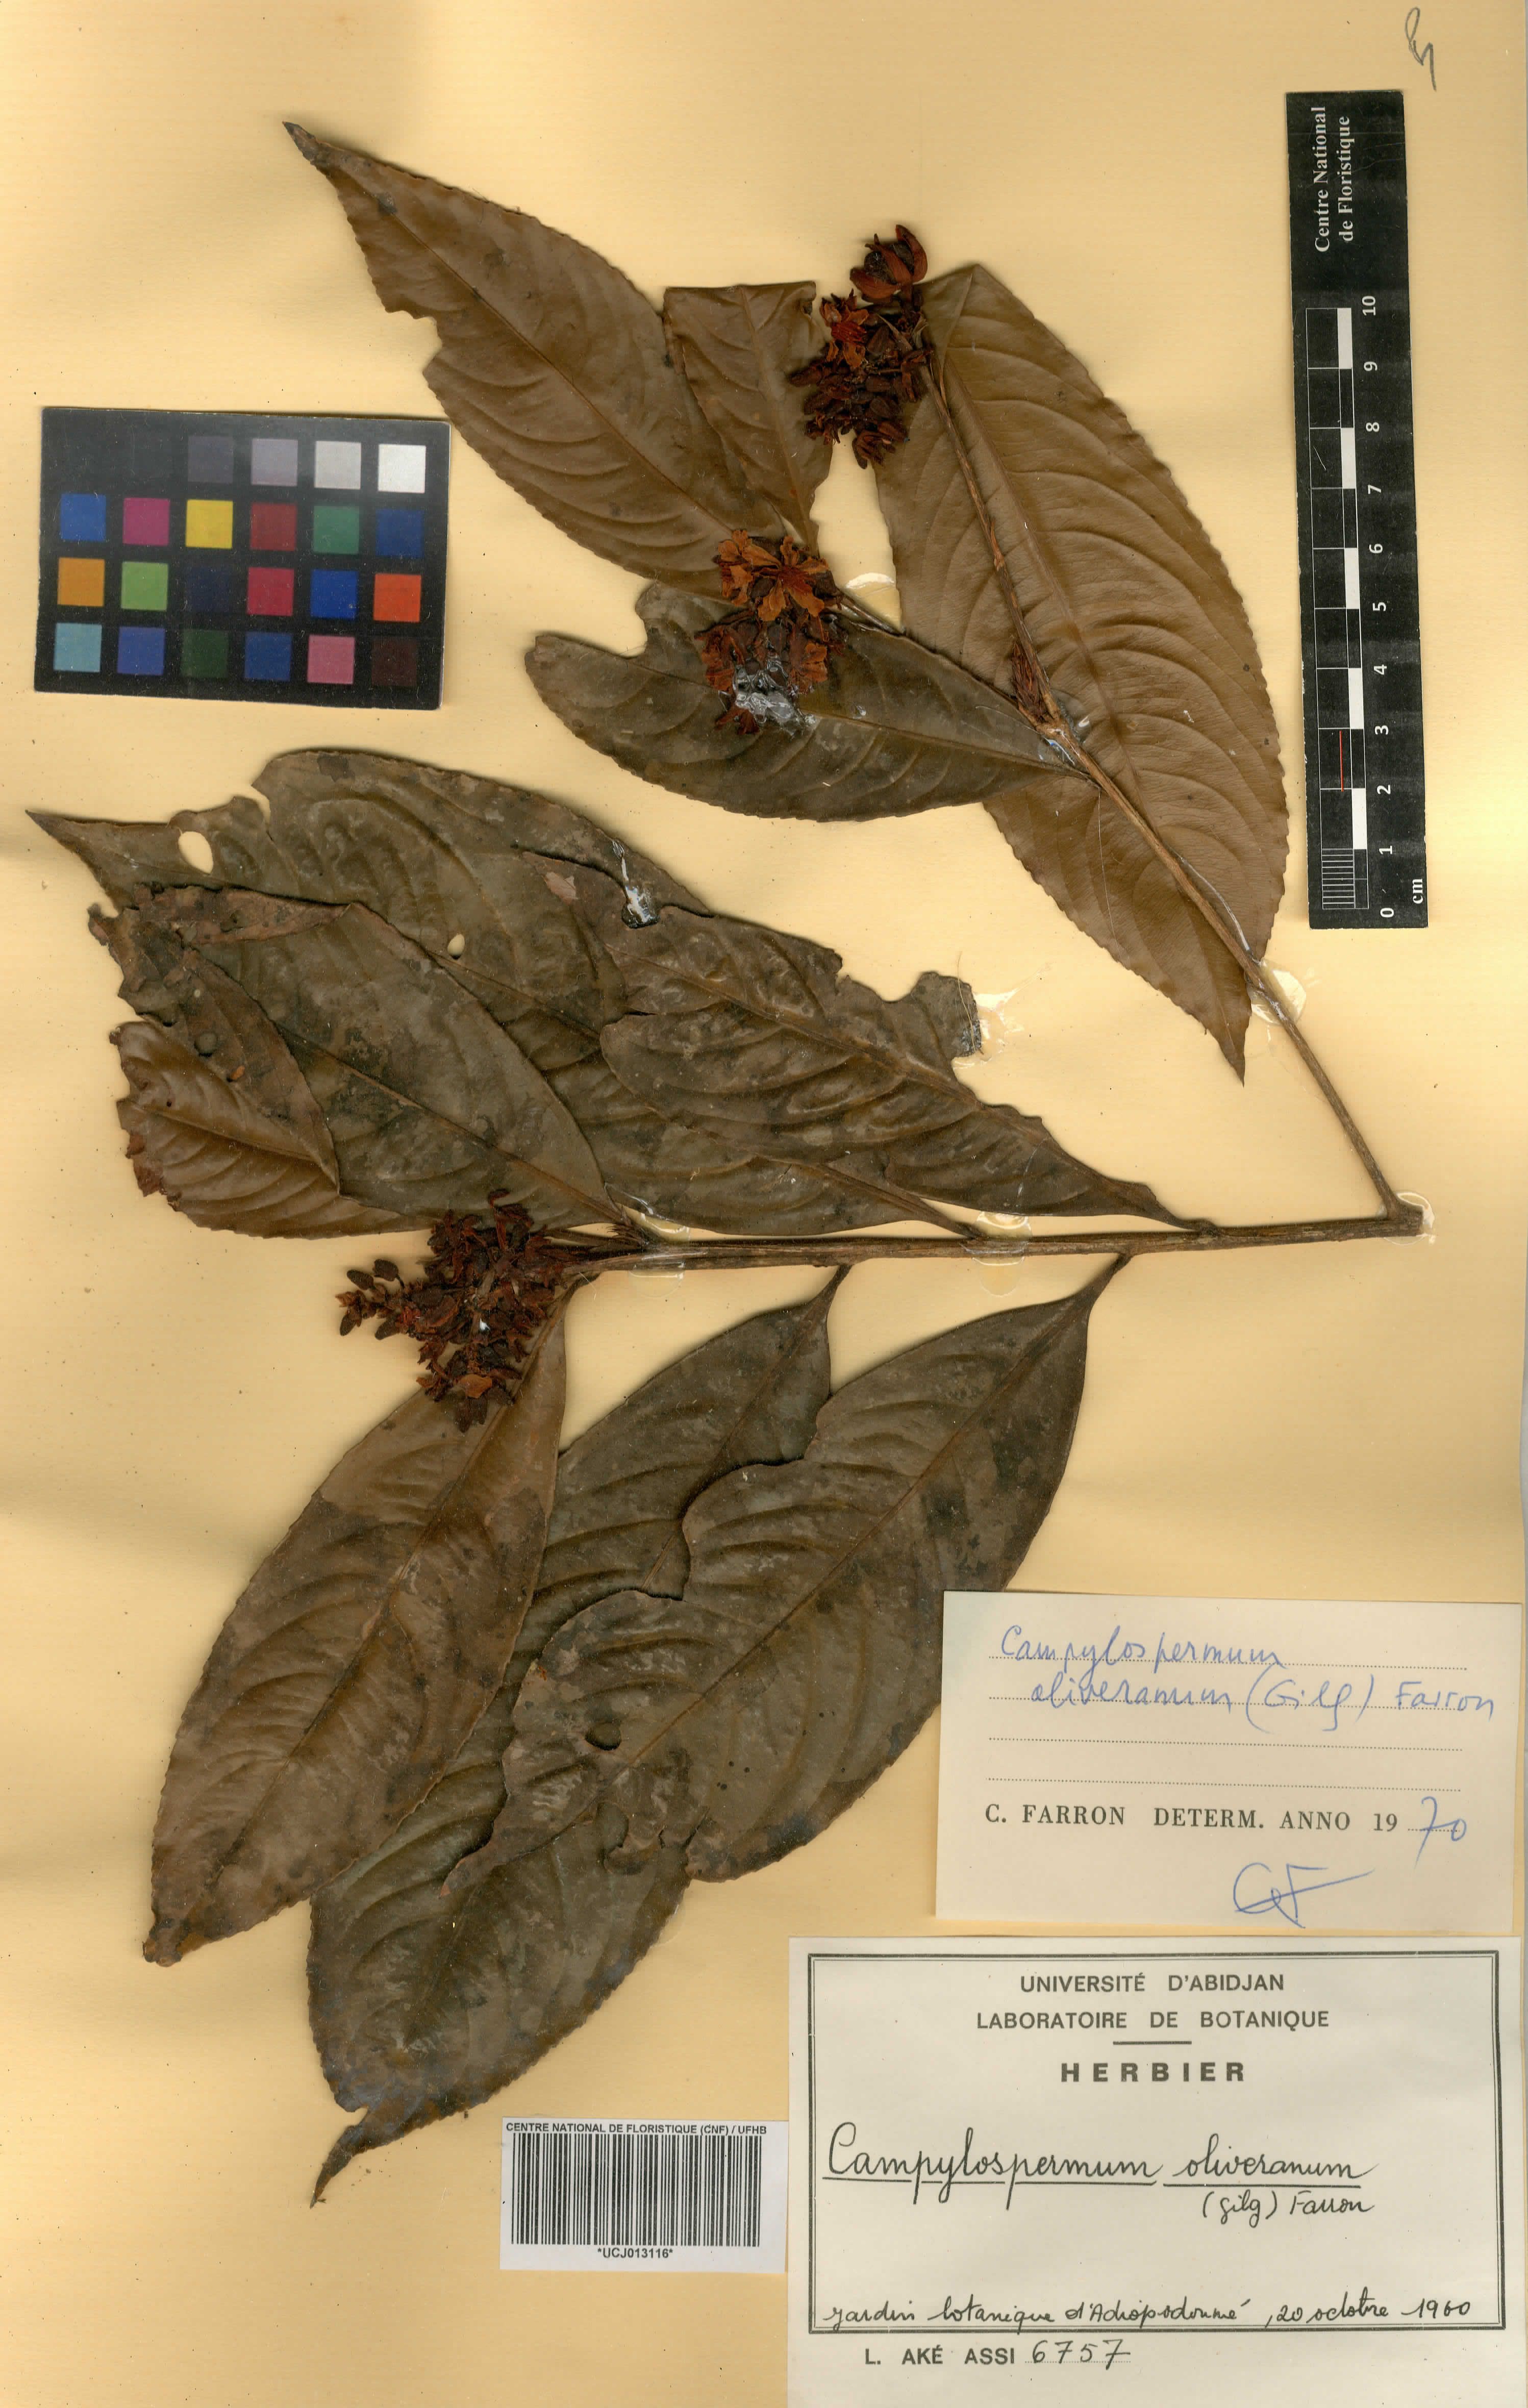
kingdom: Plantae
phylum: Tracheophyta
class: Magnoliopsida
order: Malpighiales
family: Ochnaceae
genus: Campylospermum
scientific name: Campylospermum oliverianum
